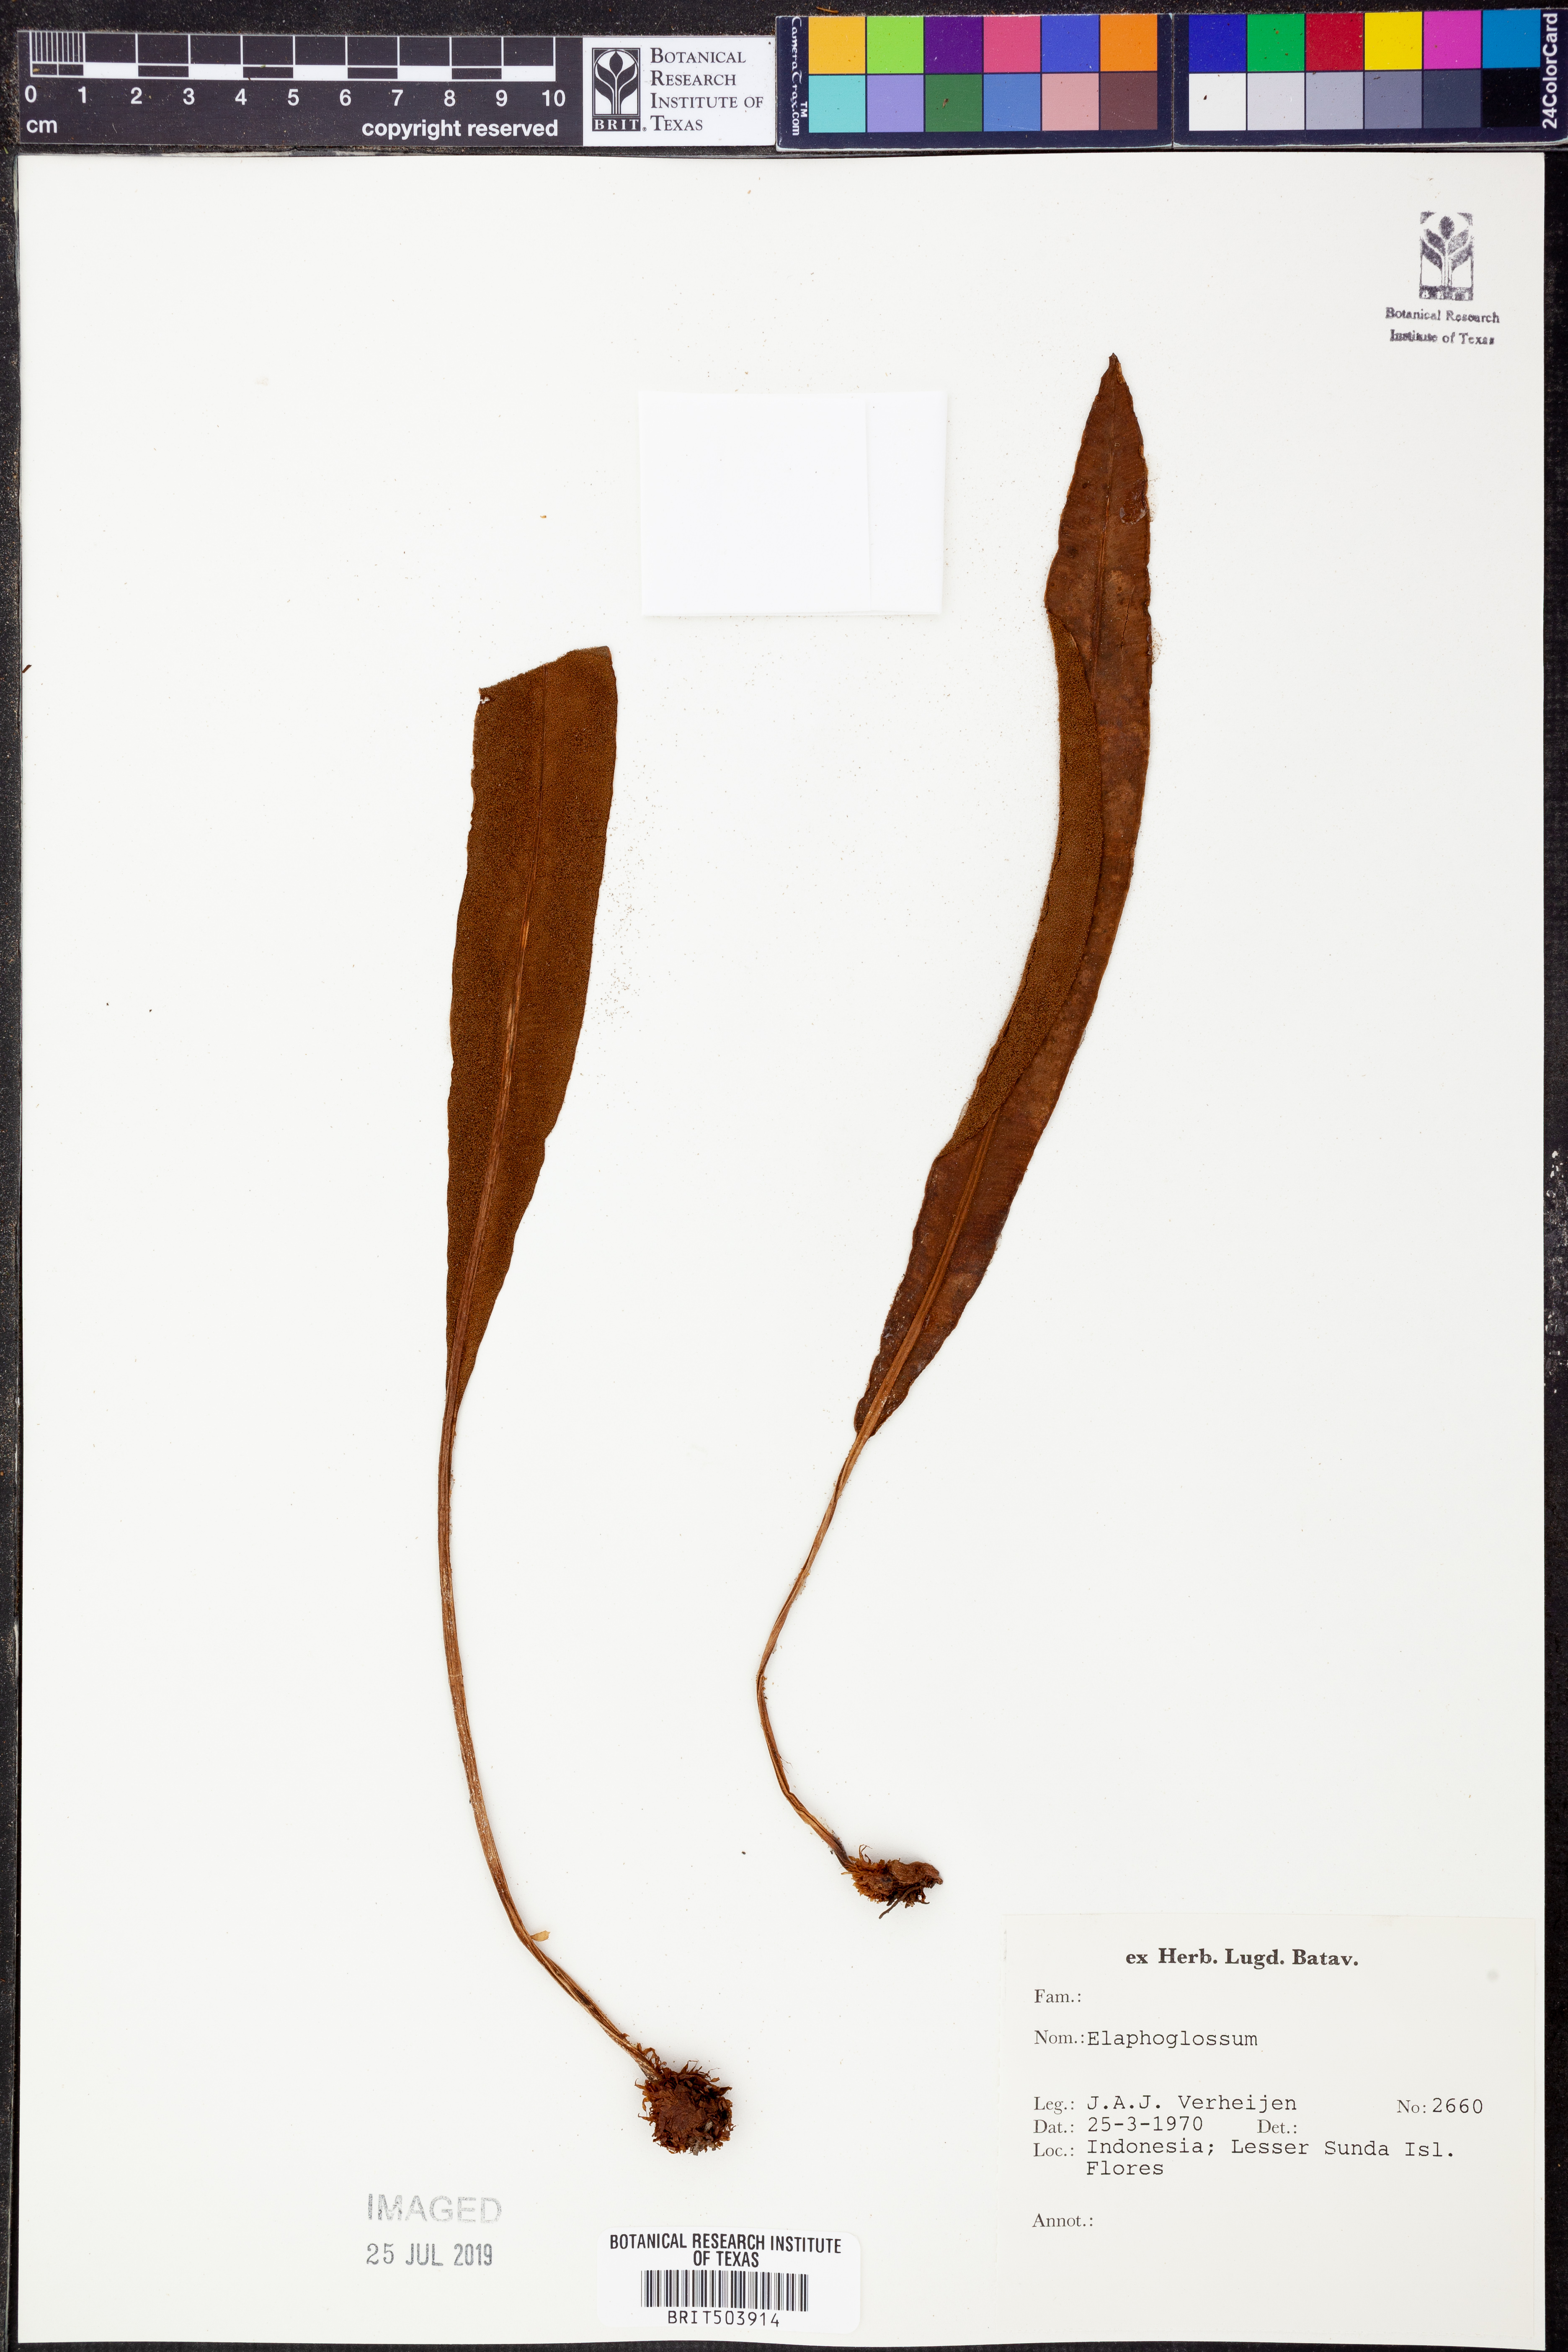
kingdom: Plantae
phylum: Tracheophyta
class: Polypodiopsida
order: Polypodiales
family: Dryopteridaceae
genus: Elaphoglossum
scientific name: Elaphoglossum
